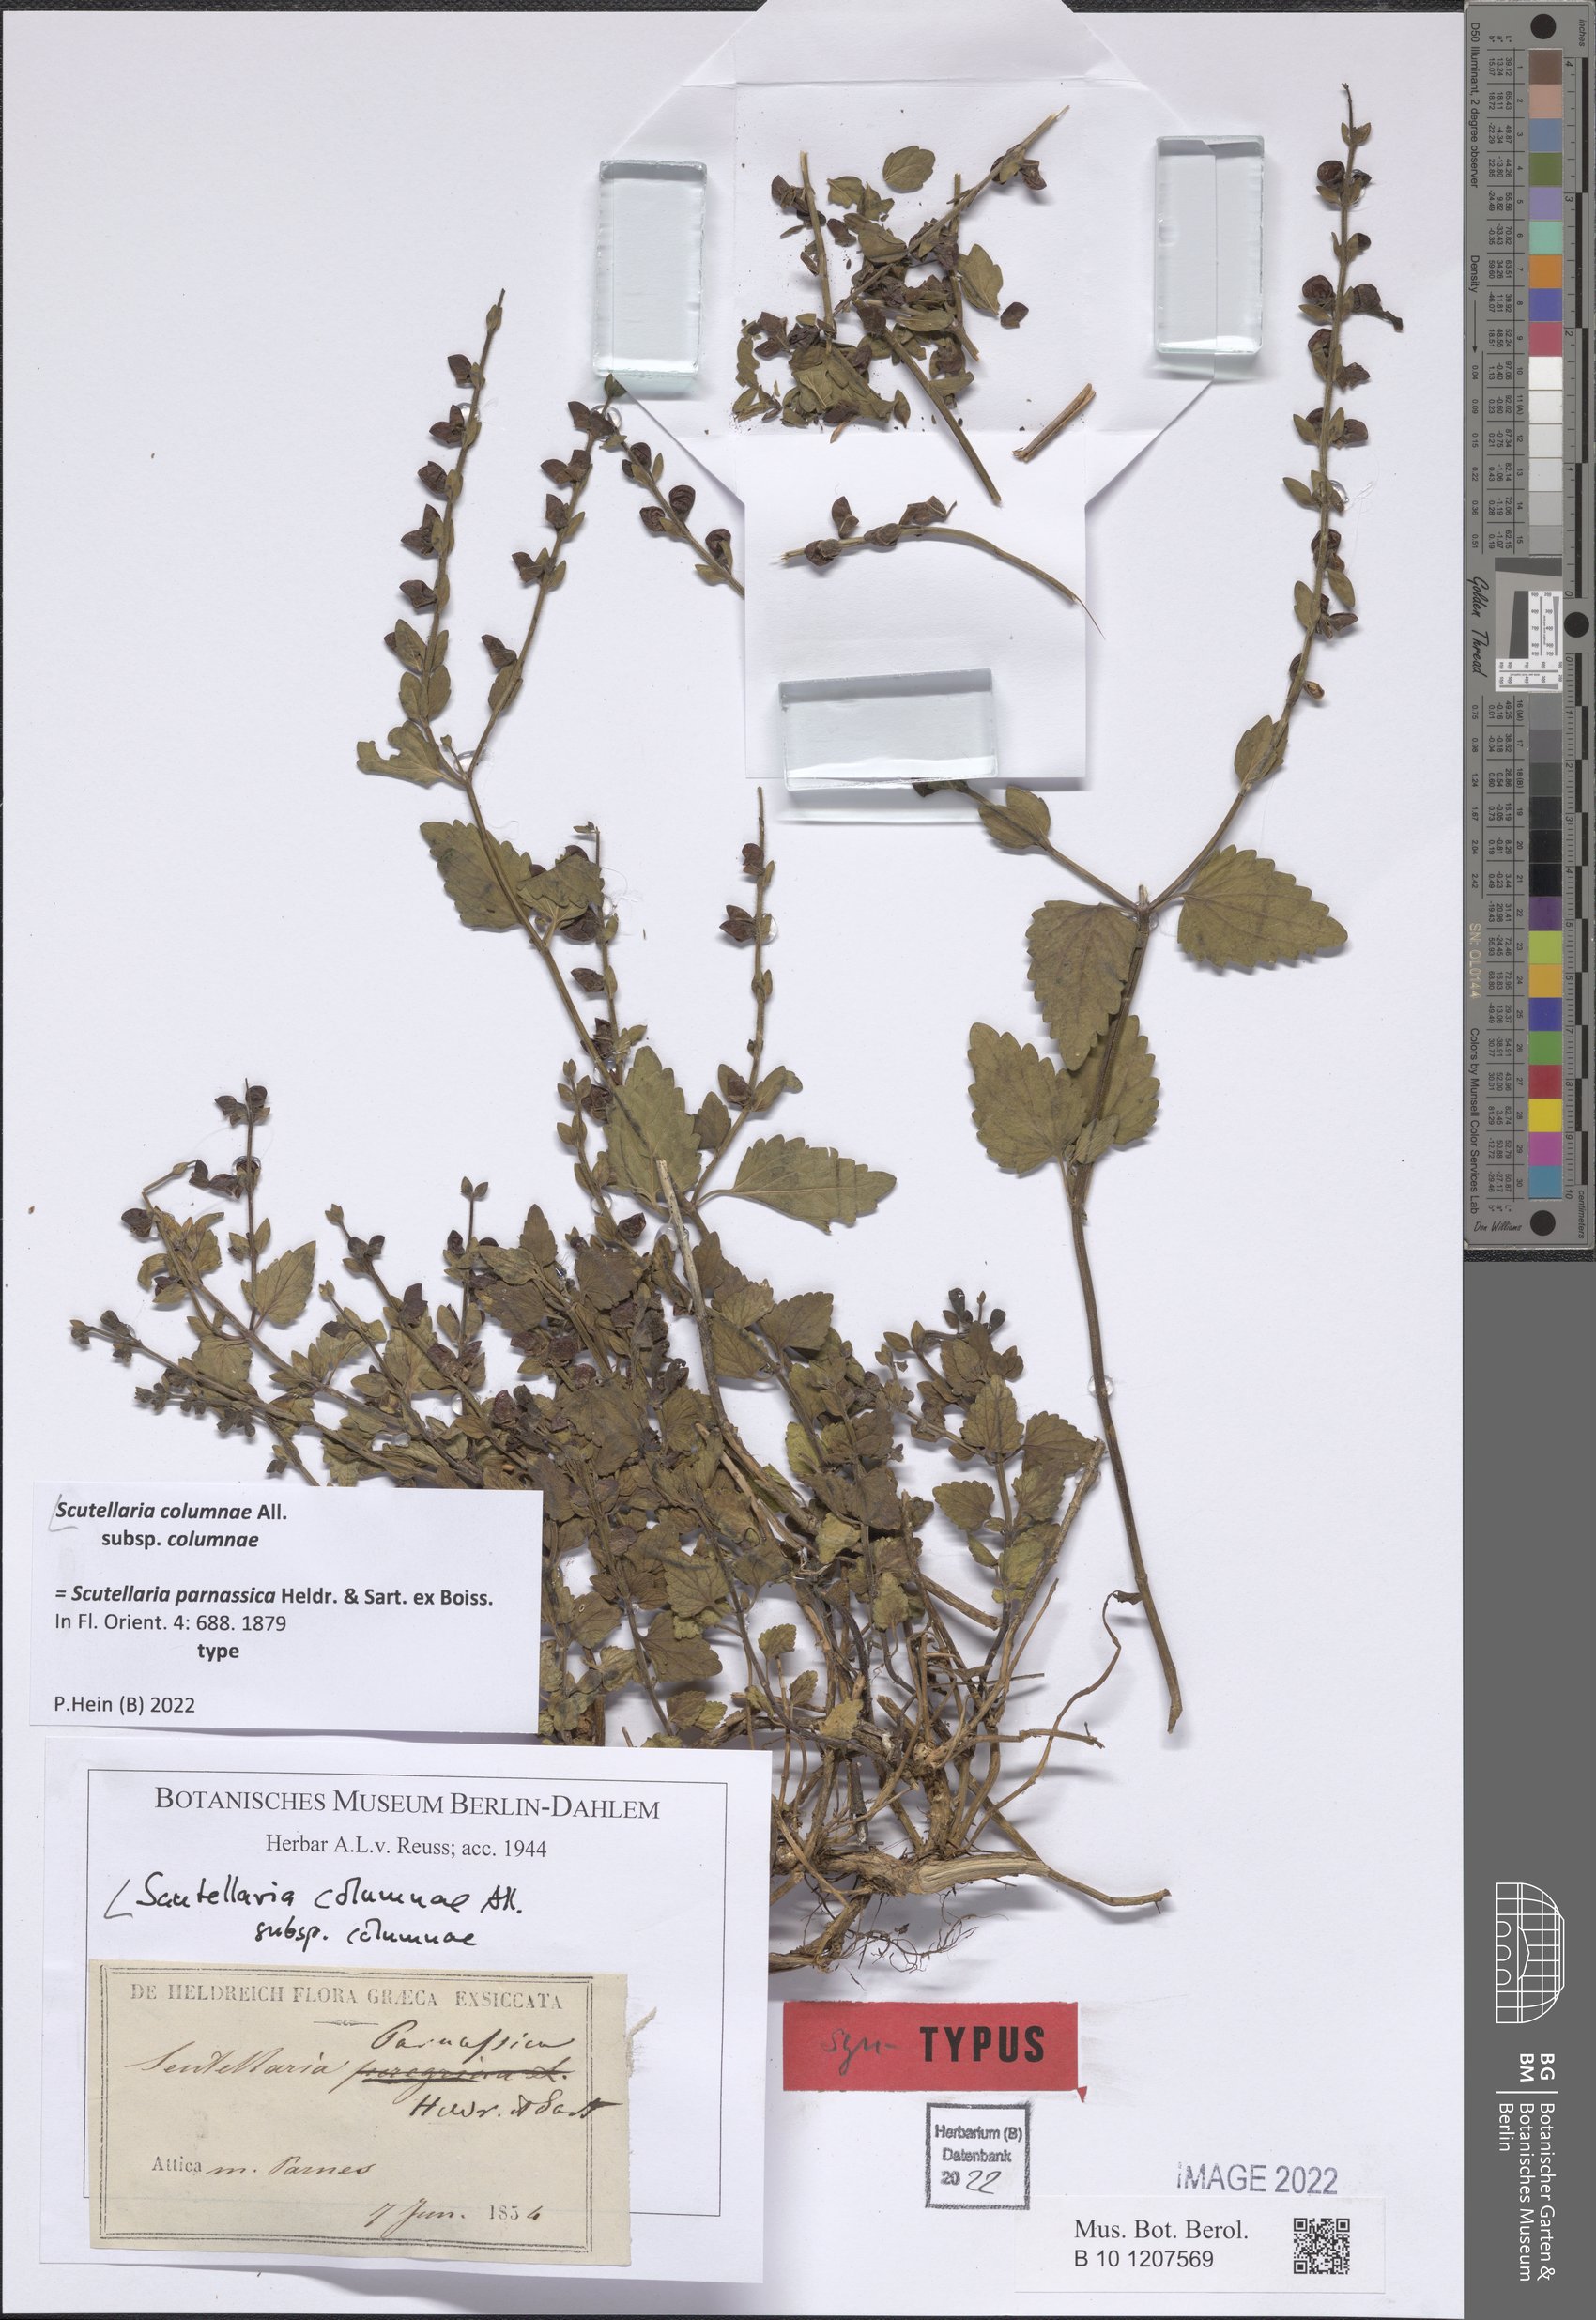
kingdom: Plantae
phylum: Tracheophyta
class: Magnoliopsida
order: Lamiales
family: Lamiaceae
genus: Scutellaria
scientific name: Scutellaria columnae
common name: Large skullcap
